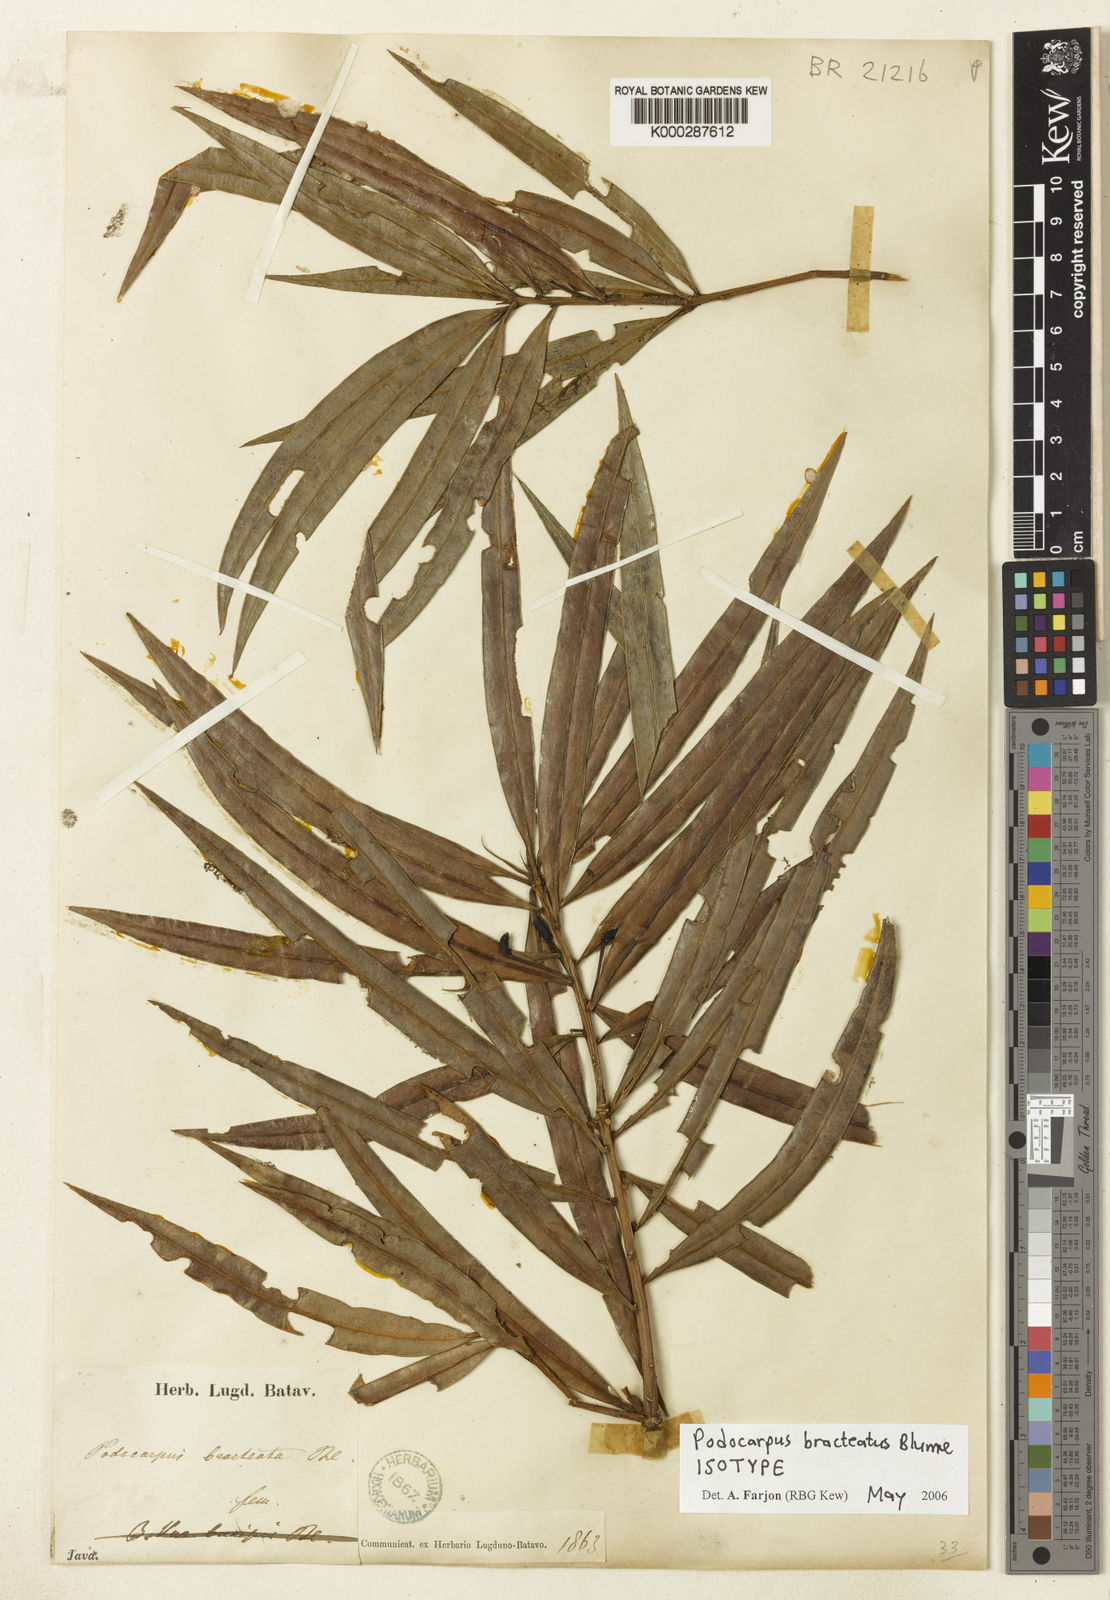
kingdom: Plantae
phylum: Tracheophyta
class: Pinopsida
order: Pinales
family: Podocarpaceae
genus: Podocarpus
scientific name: Podocarpus bracteatus
